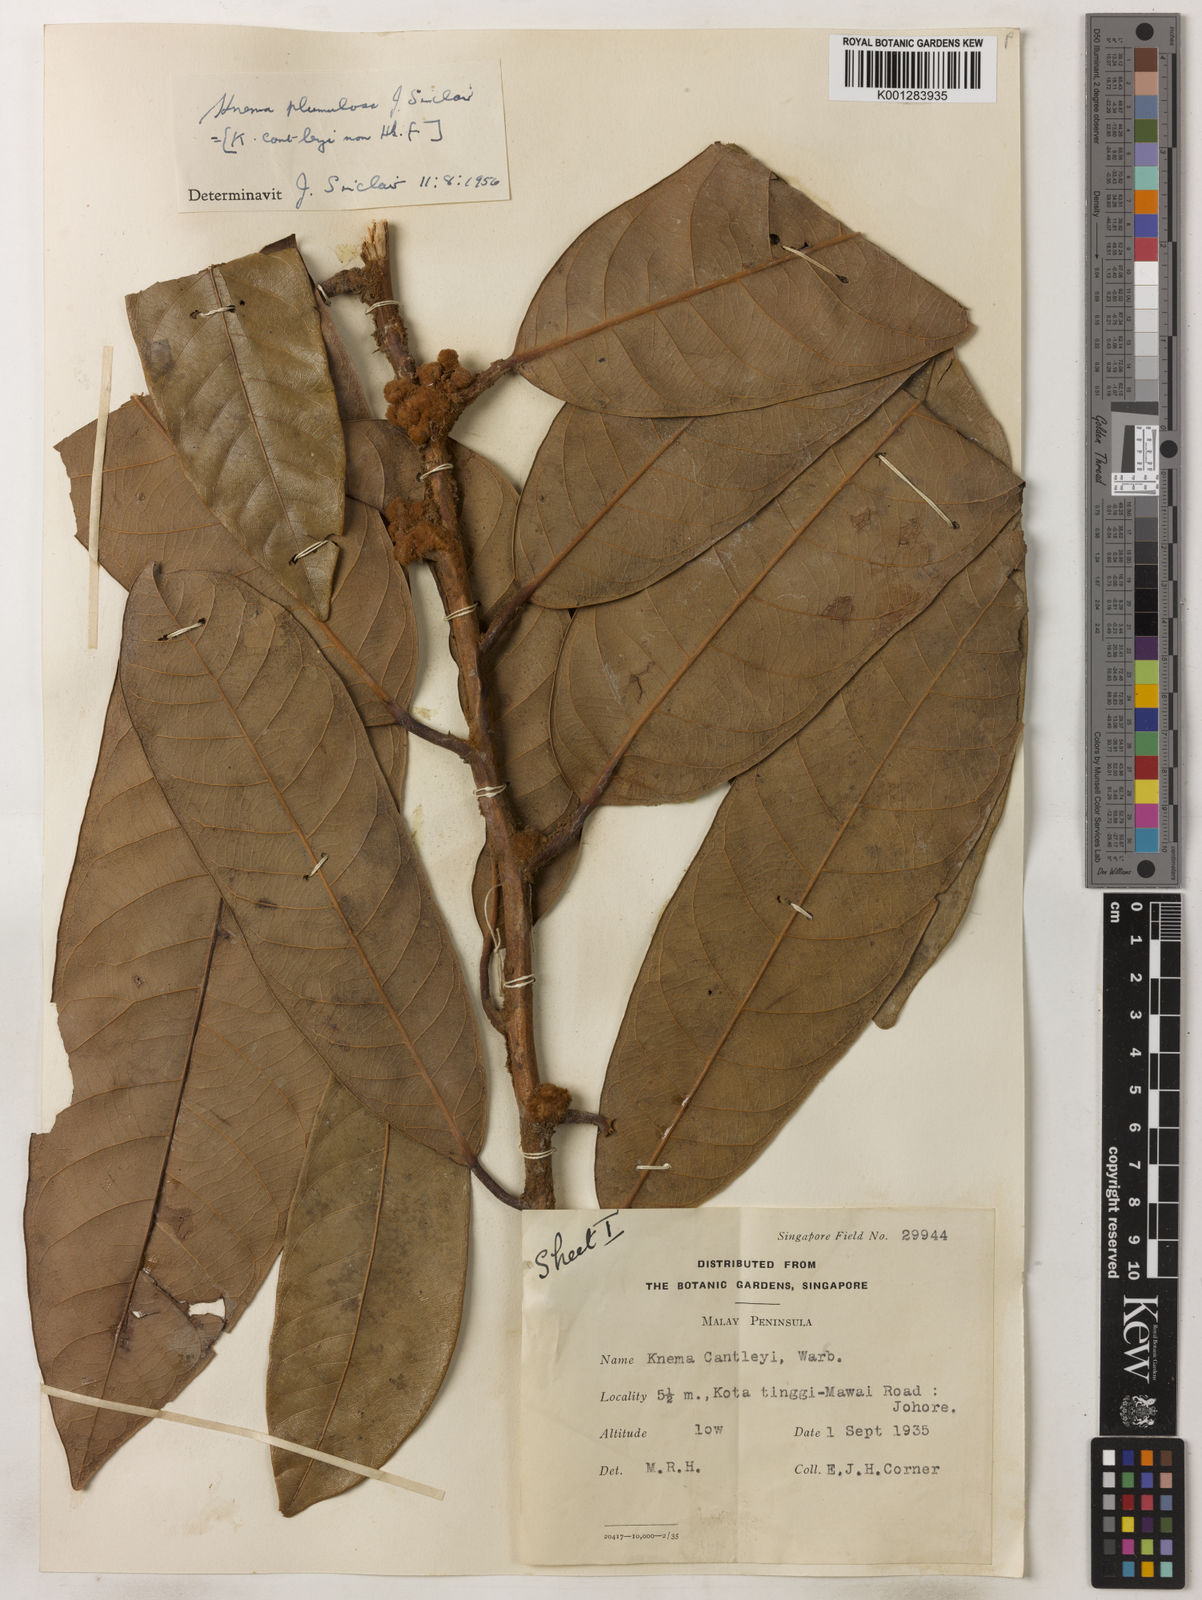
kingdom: Plantae
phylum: Tracheophyta
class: Magnoliopsida
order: Magnoliales
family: Myristicaceae
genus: Knema
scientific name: Knema plumulosa
